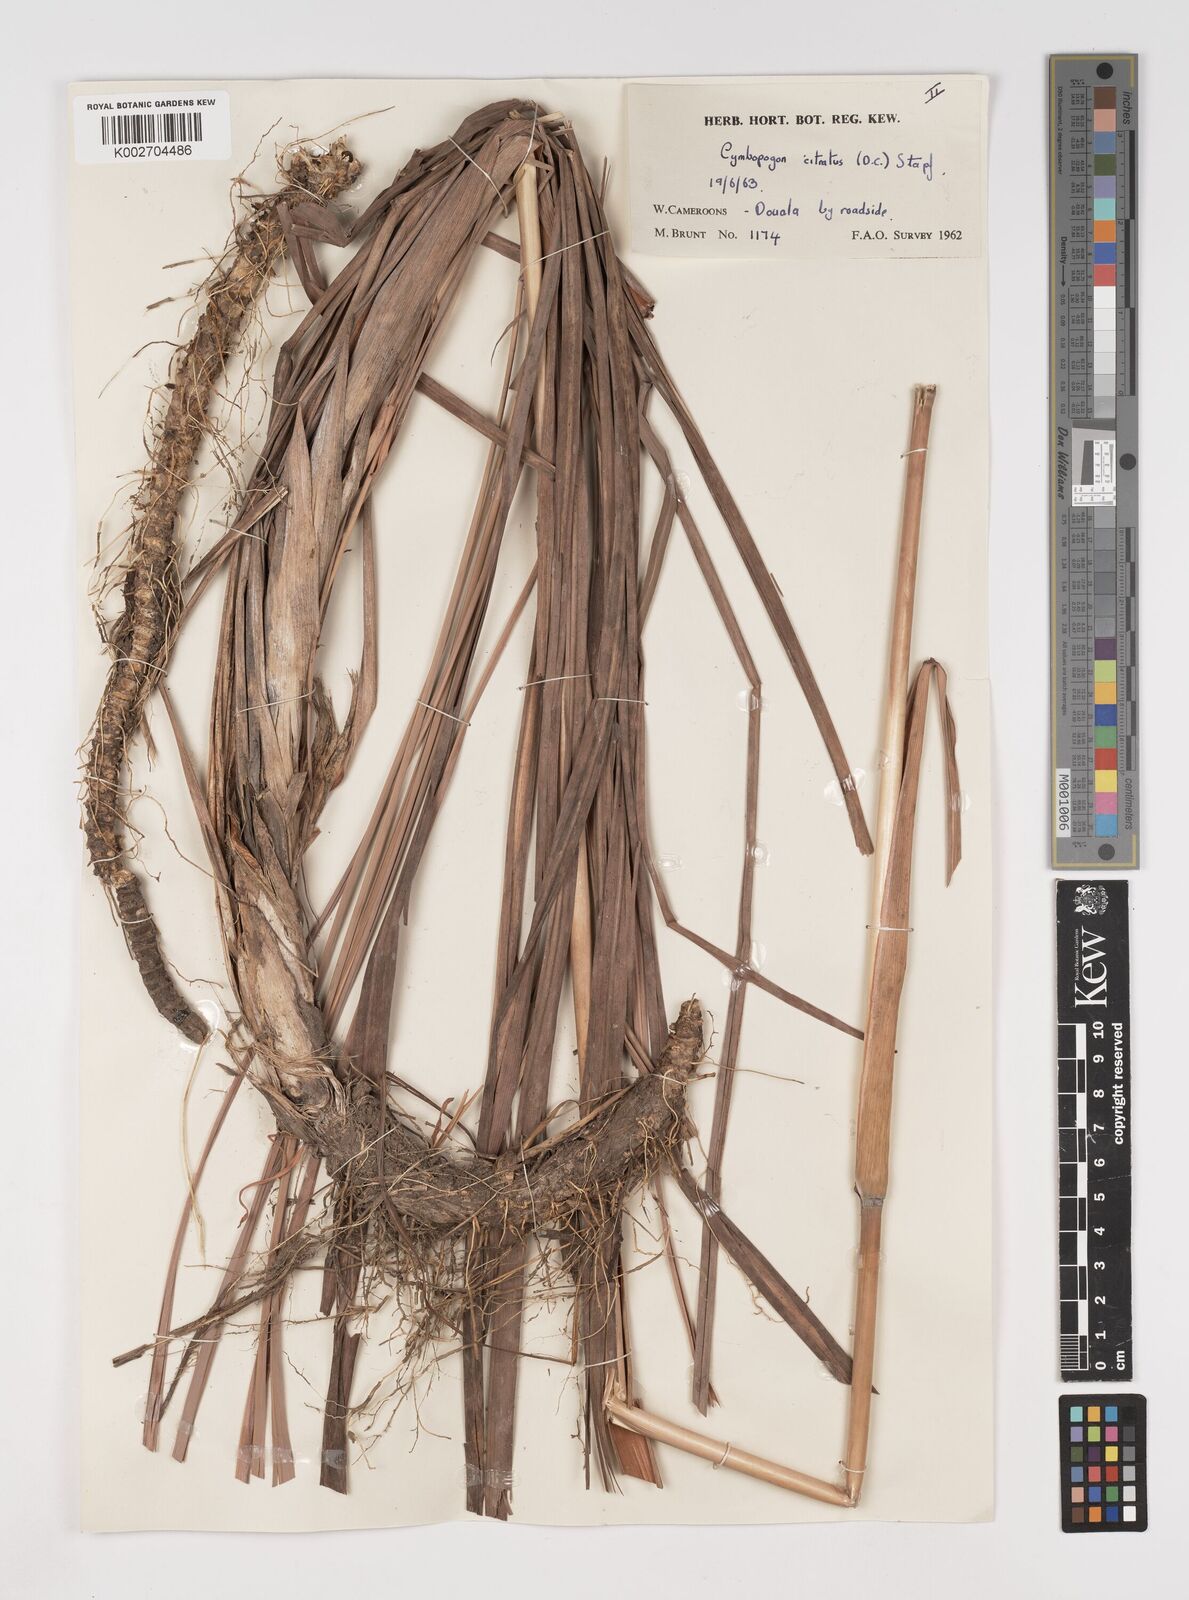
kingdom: Plantae
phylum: Tracheophyta
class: Liliopsida
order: Poales
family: Poaceae
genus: Cymbopogon
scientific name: Cymbopogon citratus
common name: Lemon grass
